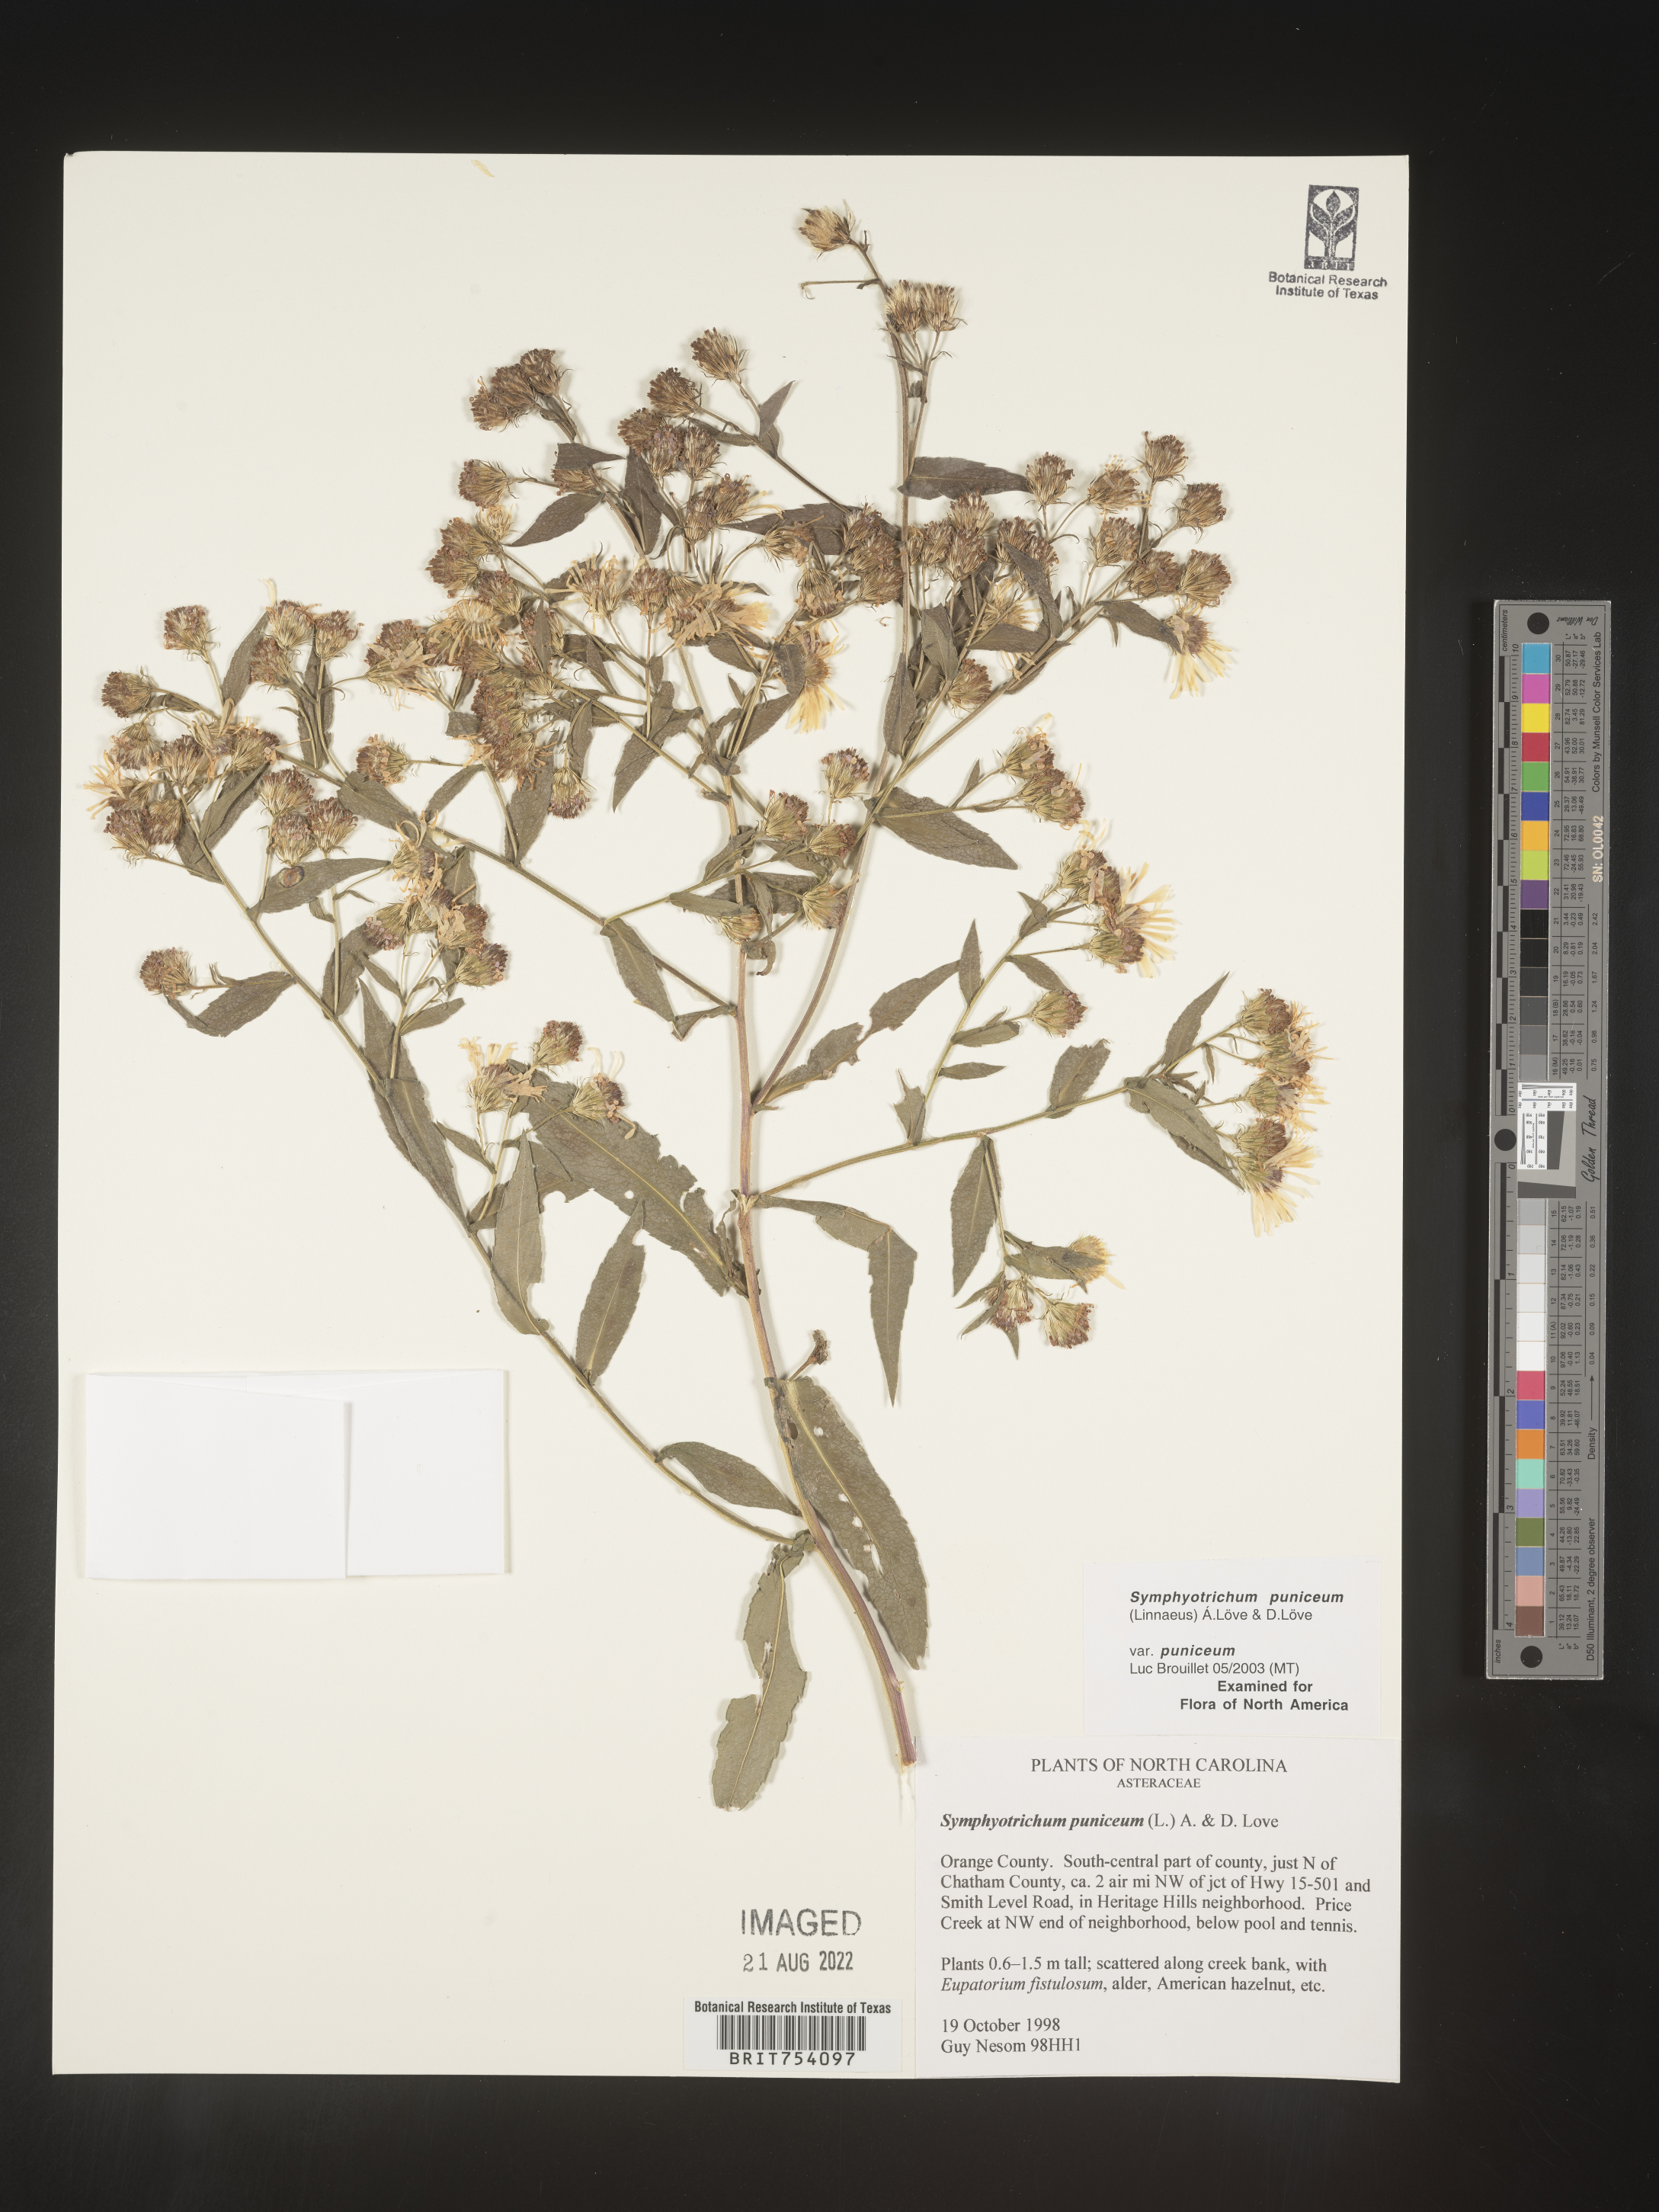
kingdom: Plantae
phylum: Tracheophyta
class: Magnoliopsida
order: Asterales
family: Asteraceae
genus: Symphyotrichum
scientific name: Symphyotrichum puniceum
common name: Bog aster
